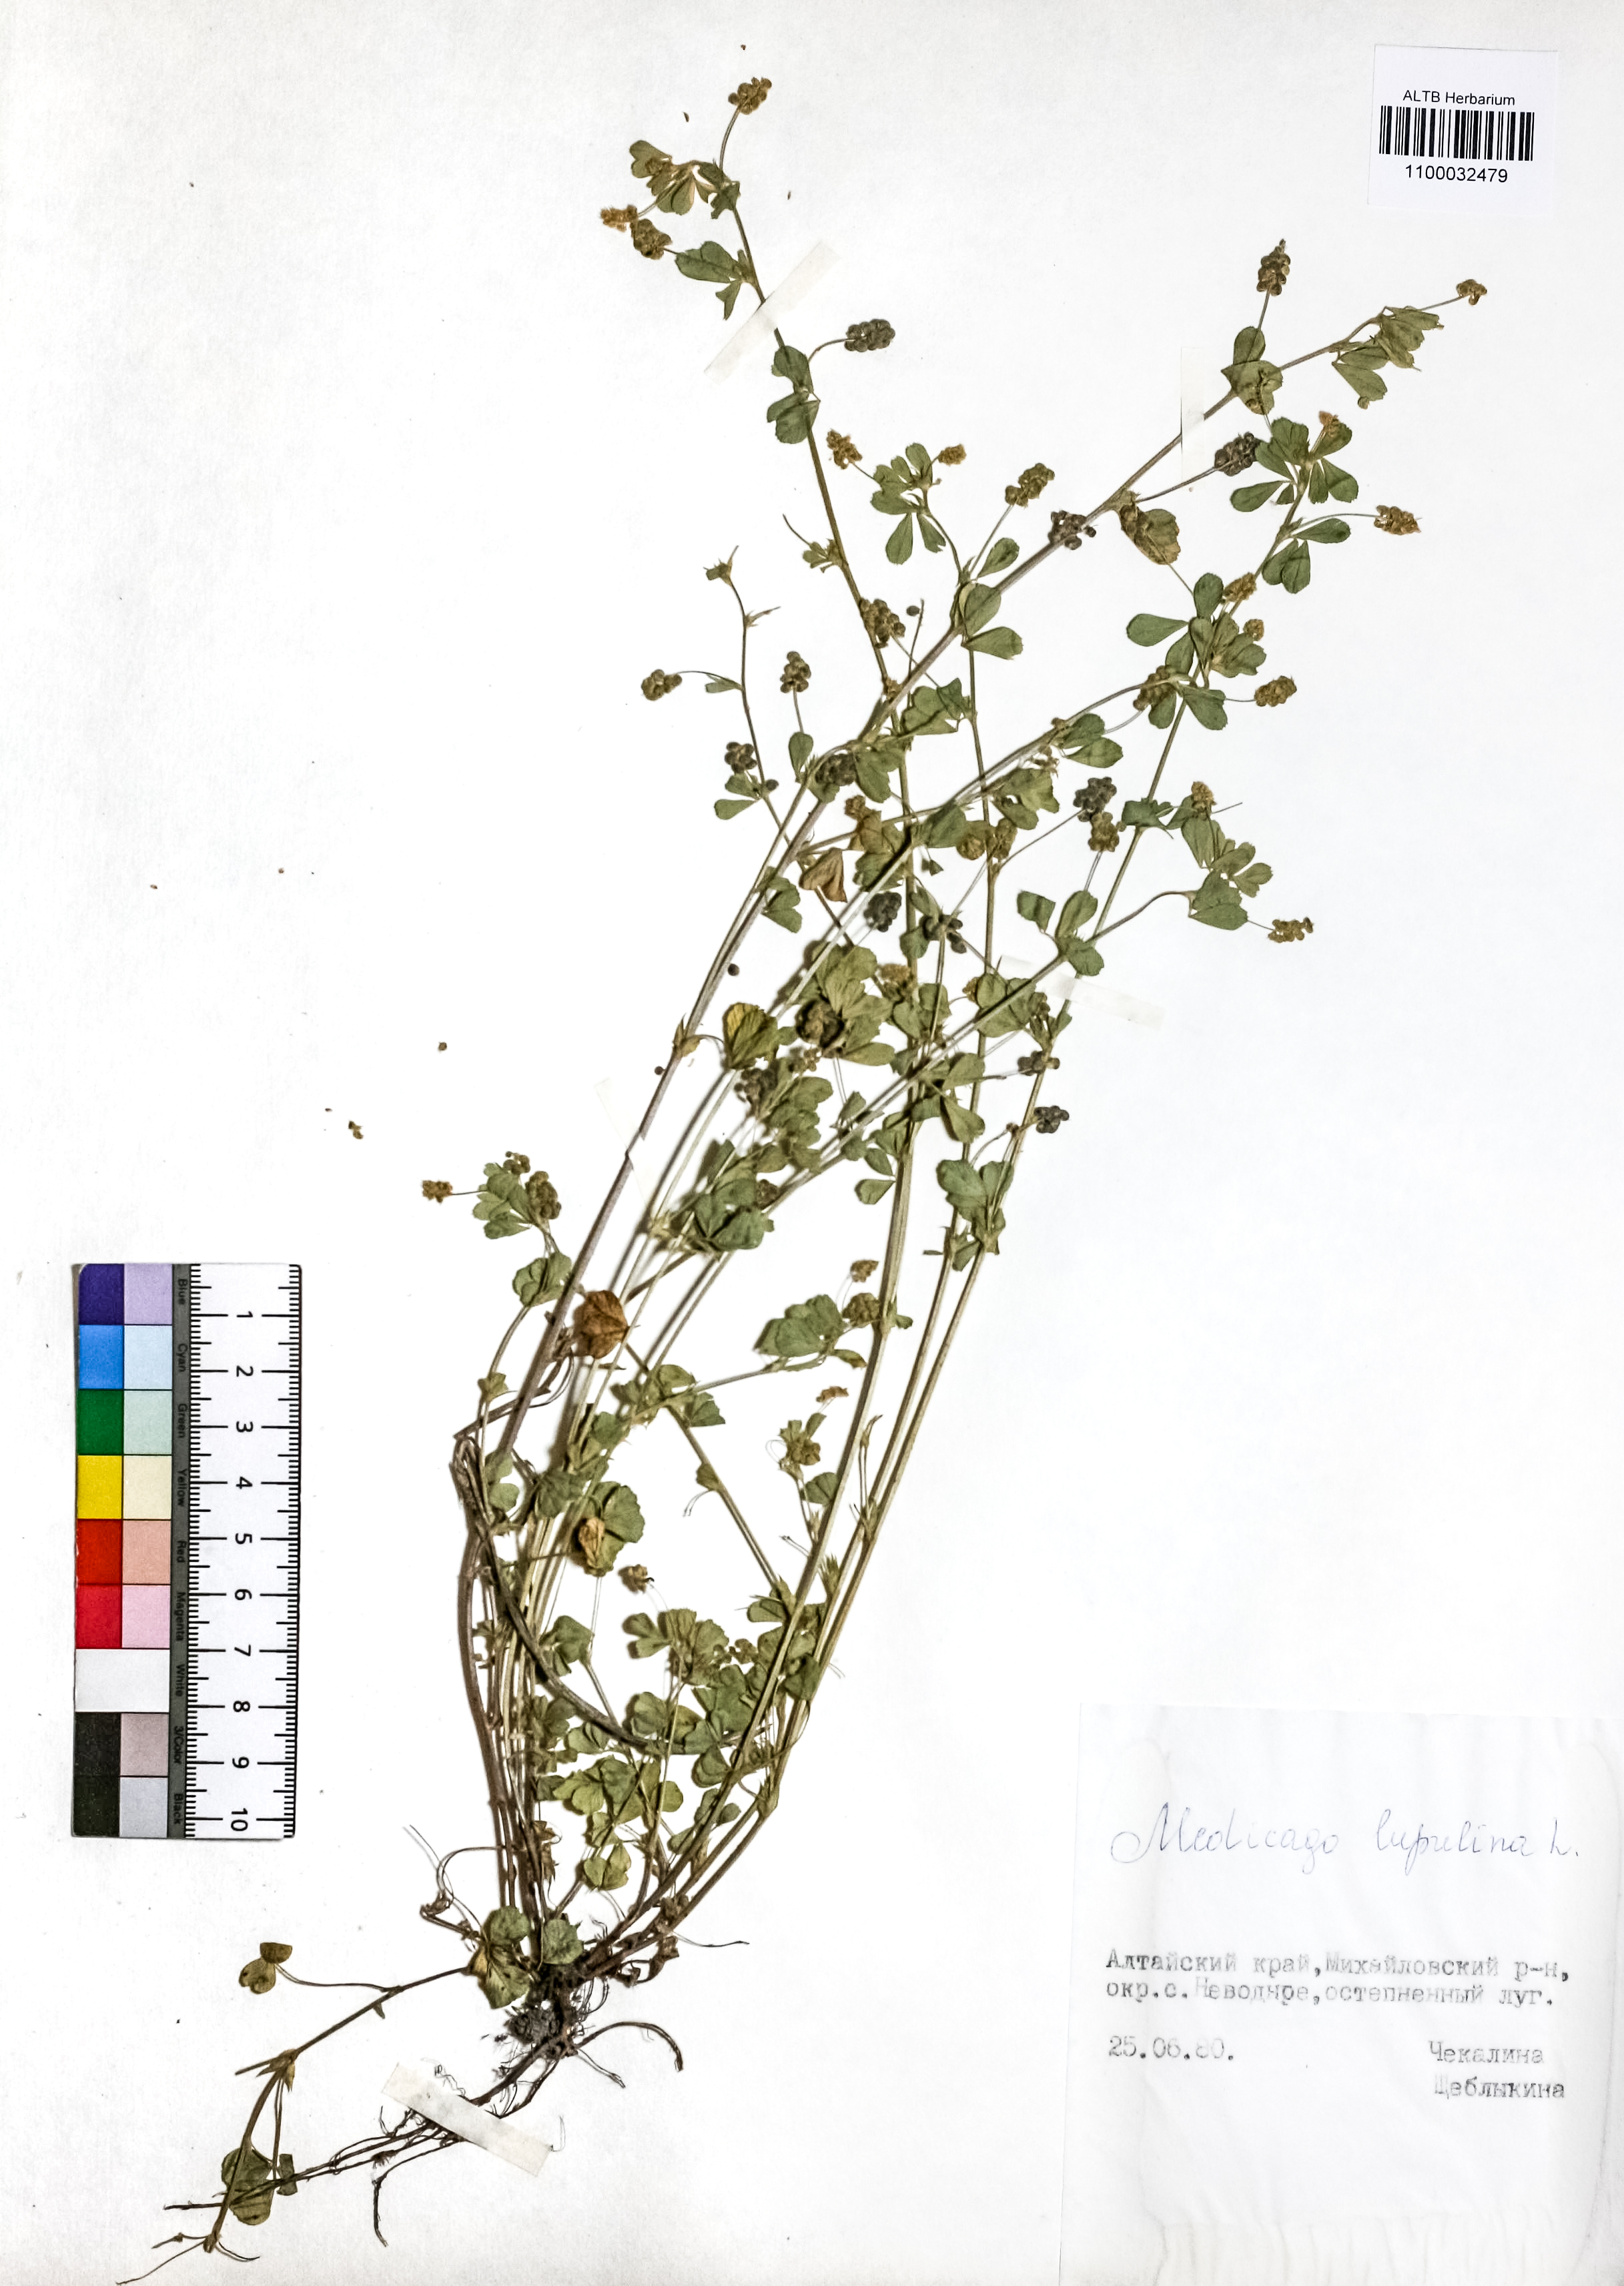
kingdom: Plantae
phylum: Tracheophyta
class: Magnoliopsida
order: Fabales
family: Fabaceae
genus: Medicago
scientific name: Medicago lupulina
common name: Black medick
